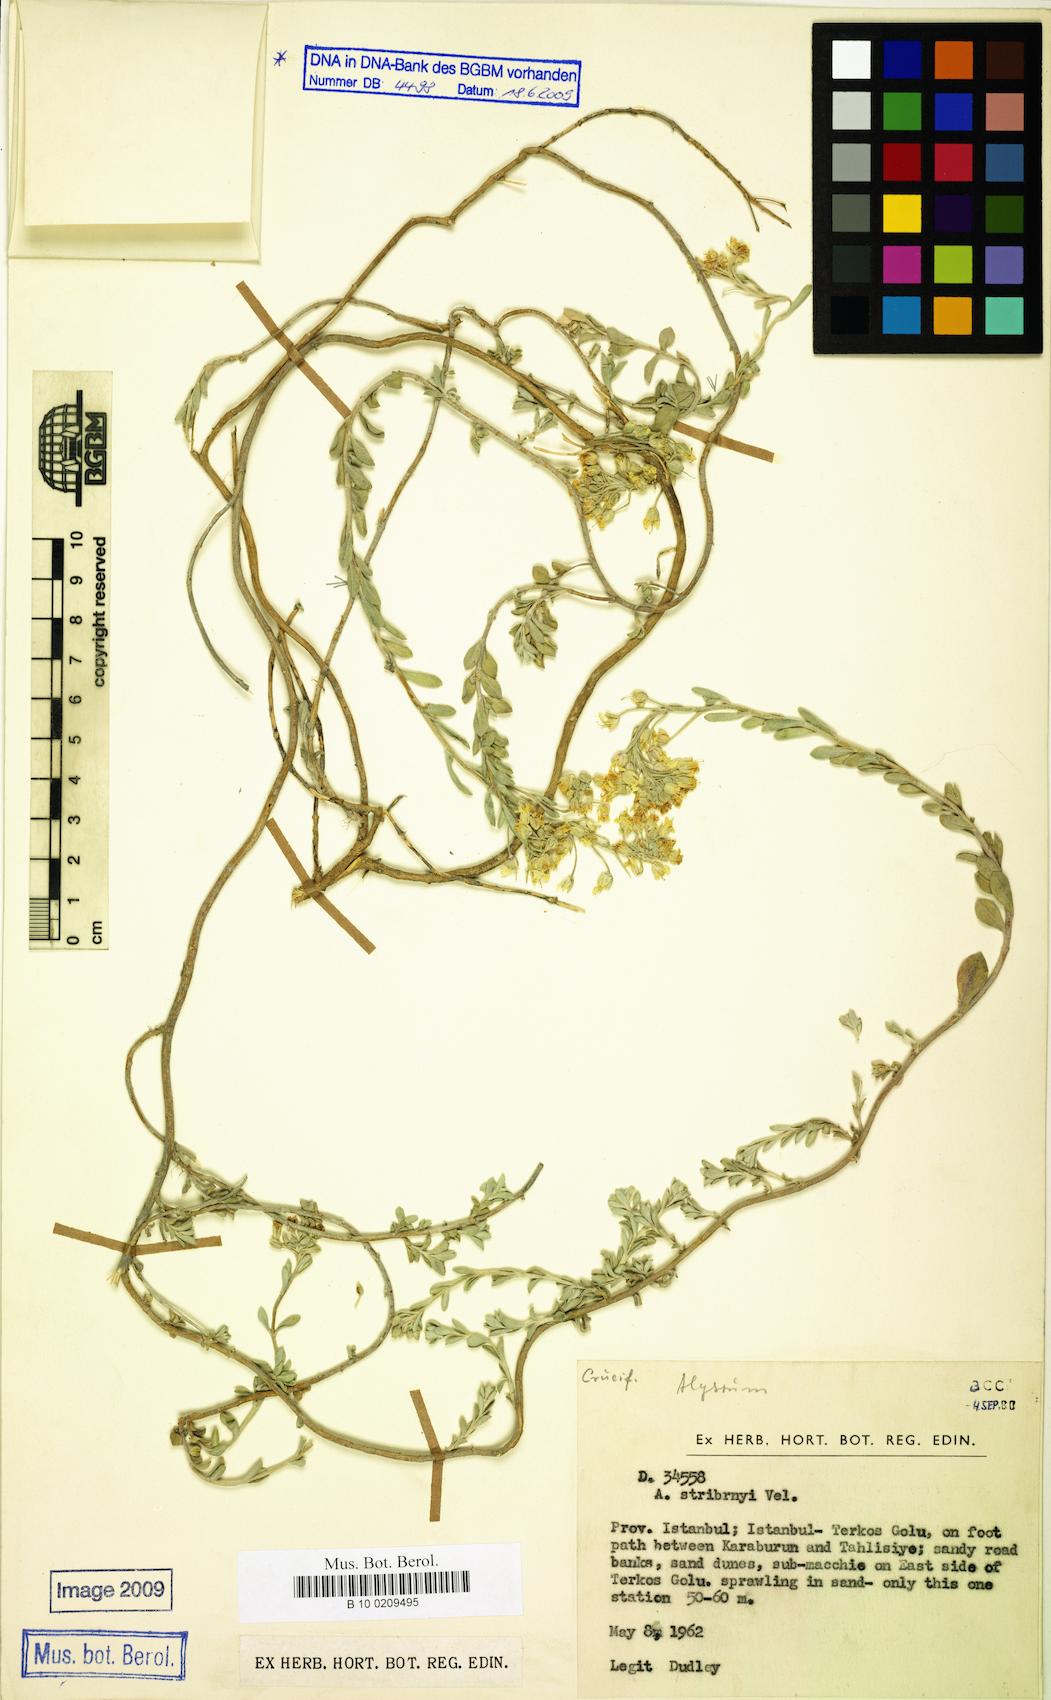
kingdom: Plantae
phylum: Tracheophyta
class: Magnoliopsida
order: Brassicales
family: Brassicaceae
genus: Alyssum
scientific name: Alyssum montanum
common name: Mountain alison
